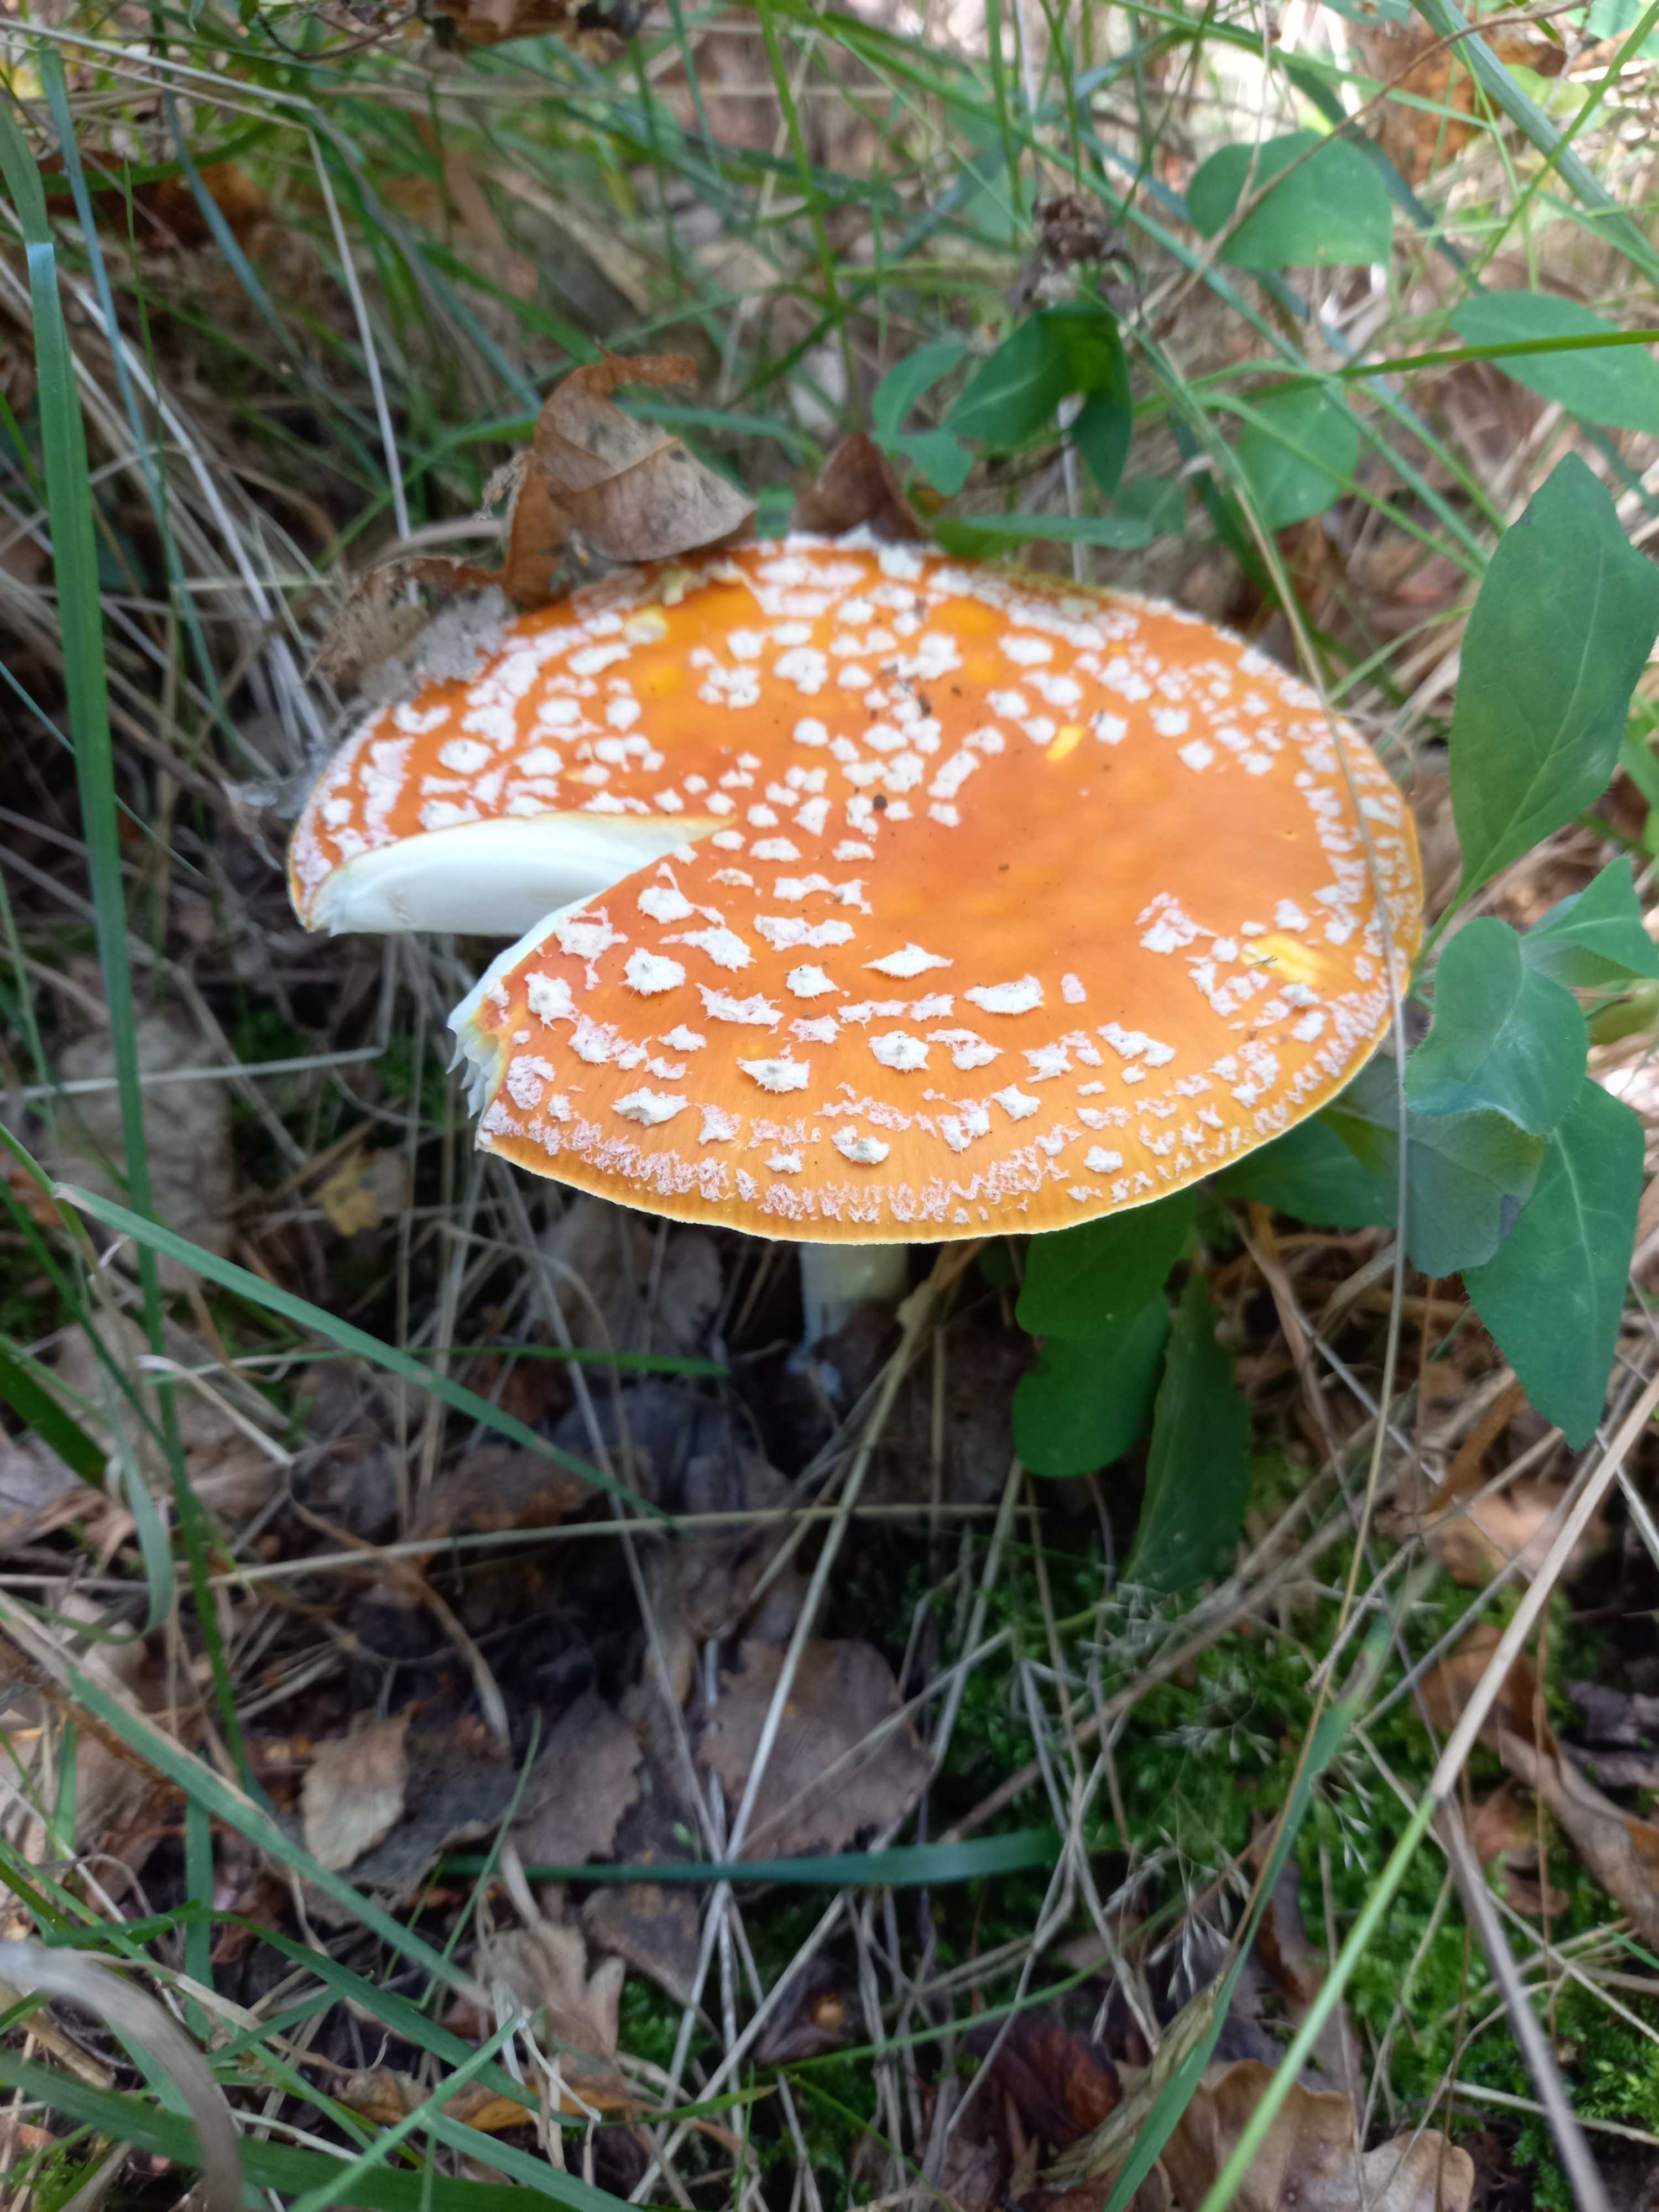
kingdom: Fungi
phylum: Basidiomycota
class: Agaricomycetes
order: Agaricales
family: Amanitaceae
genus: Amanita
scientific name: Amanita muscaria
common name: rød fluesvamp
